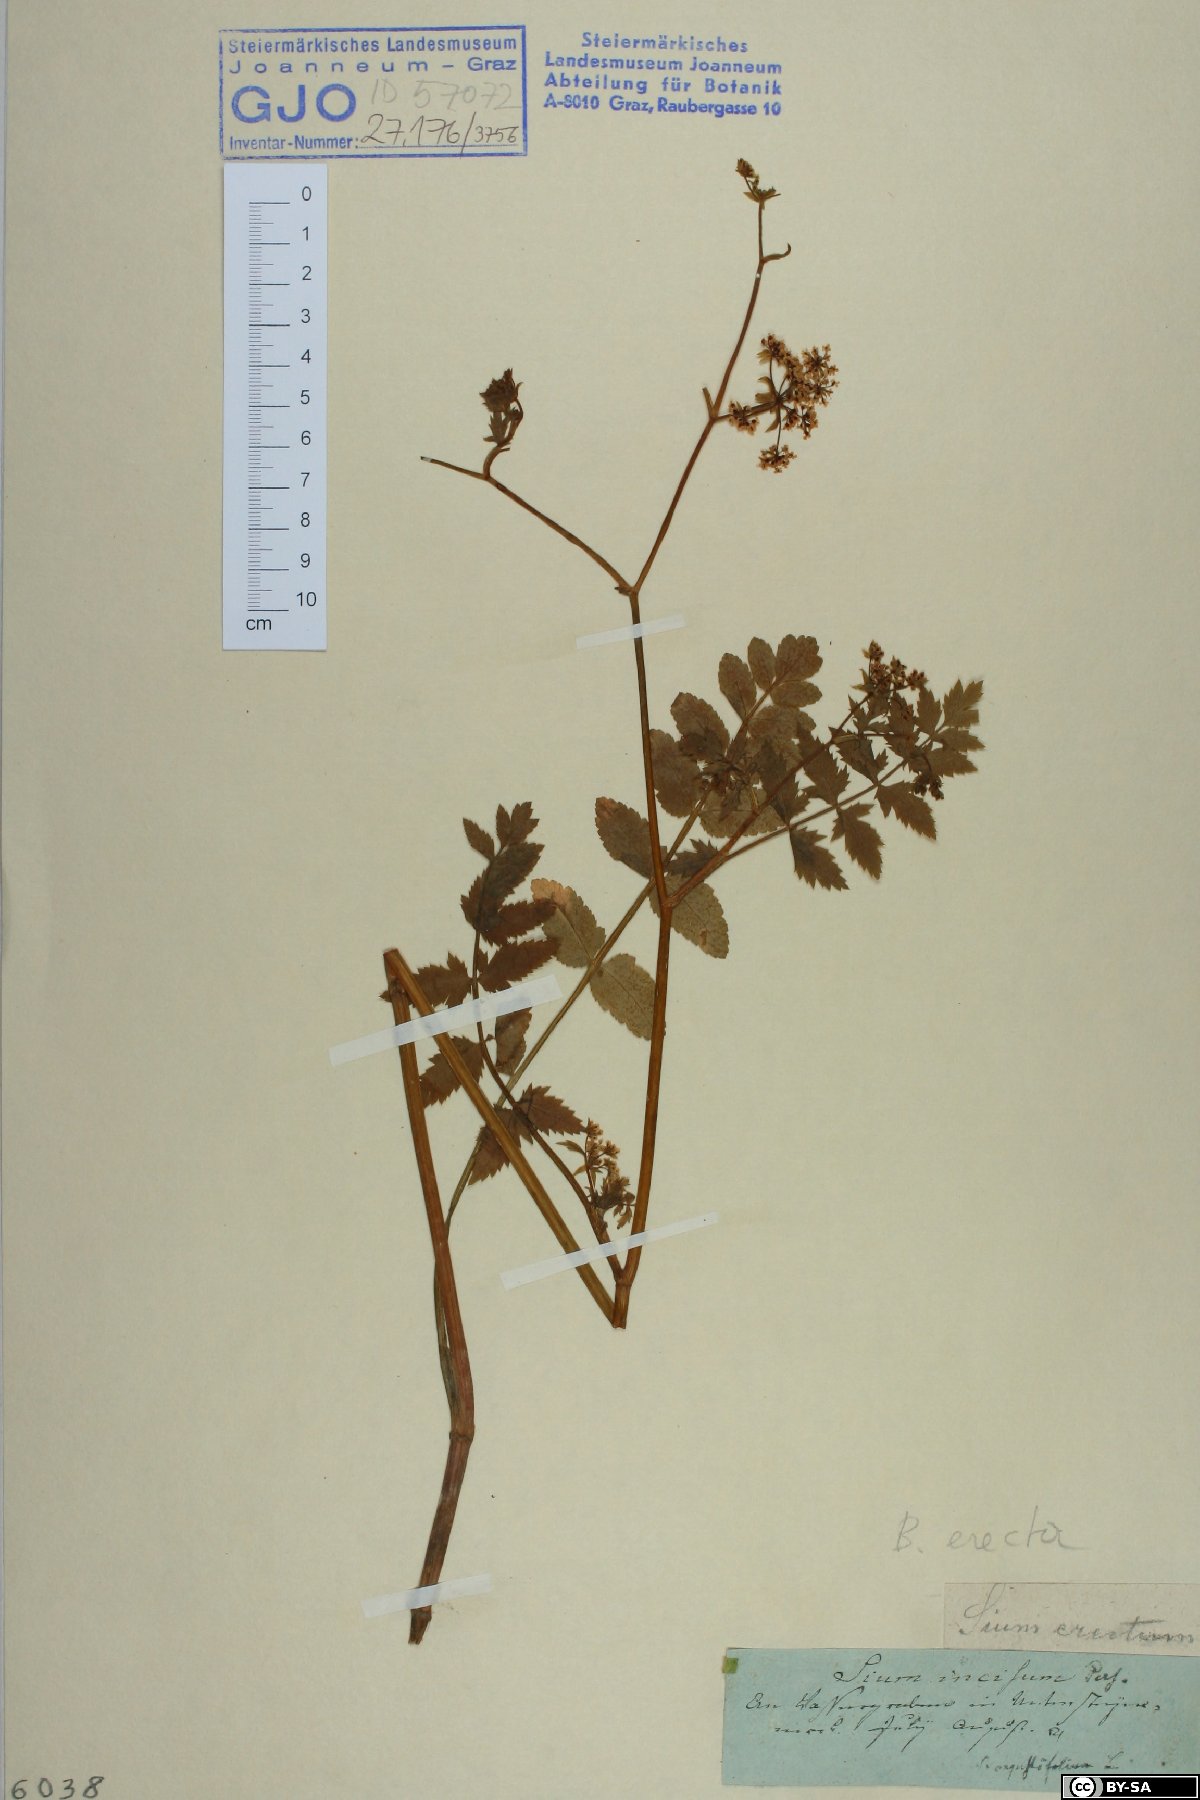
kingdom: Plantae
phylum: Tracheophyta
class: Magnoliopsida
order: Apiales
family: Apiaceae
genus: Berula
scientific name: Berula erecta
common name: Lesser water-parsnip
